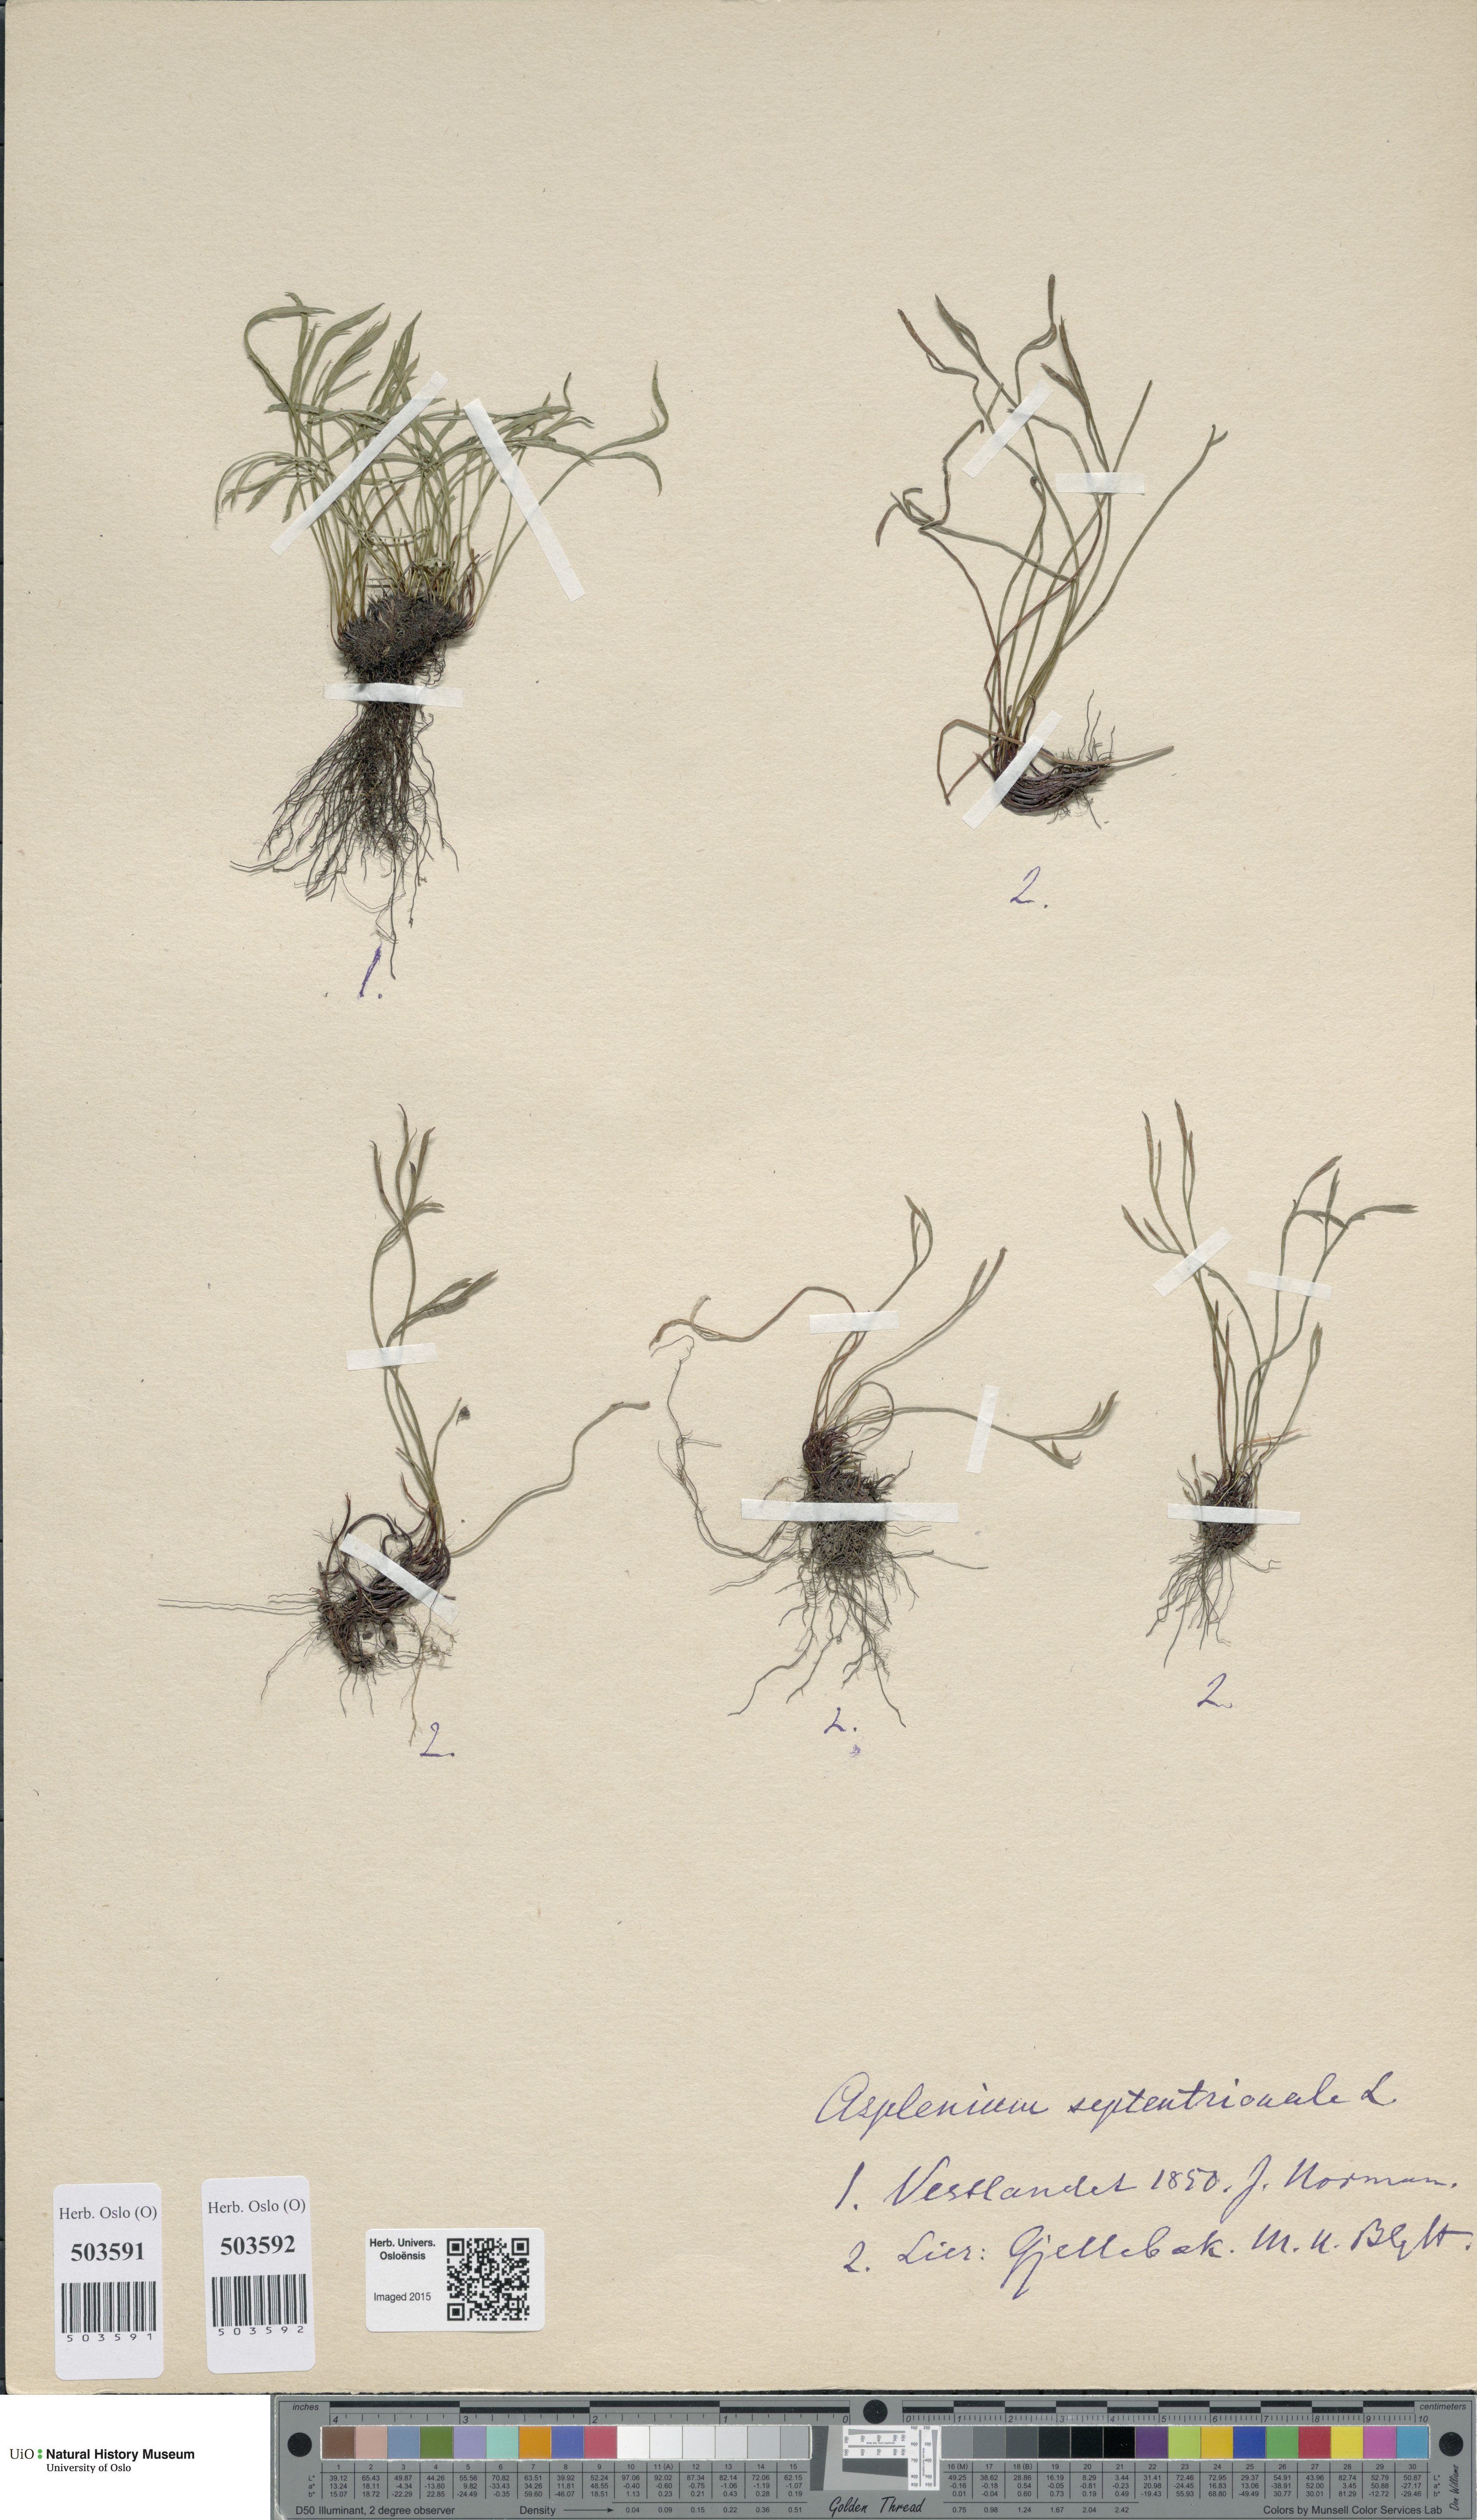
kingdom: Plantae
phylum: Tracheophyta
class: Polypodiopsida
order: Polypodiales
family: Aspleniaceae
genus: Asplenium
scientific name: Asplenium septentrionale
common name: Forked spleenwort
